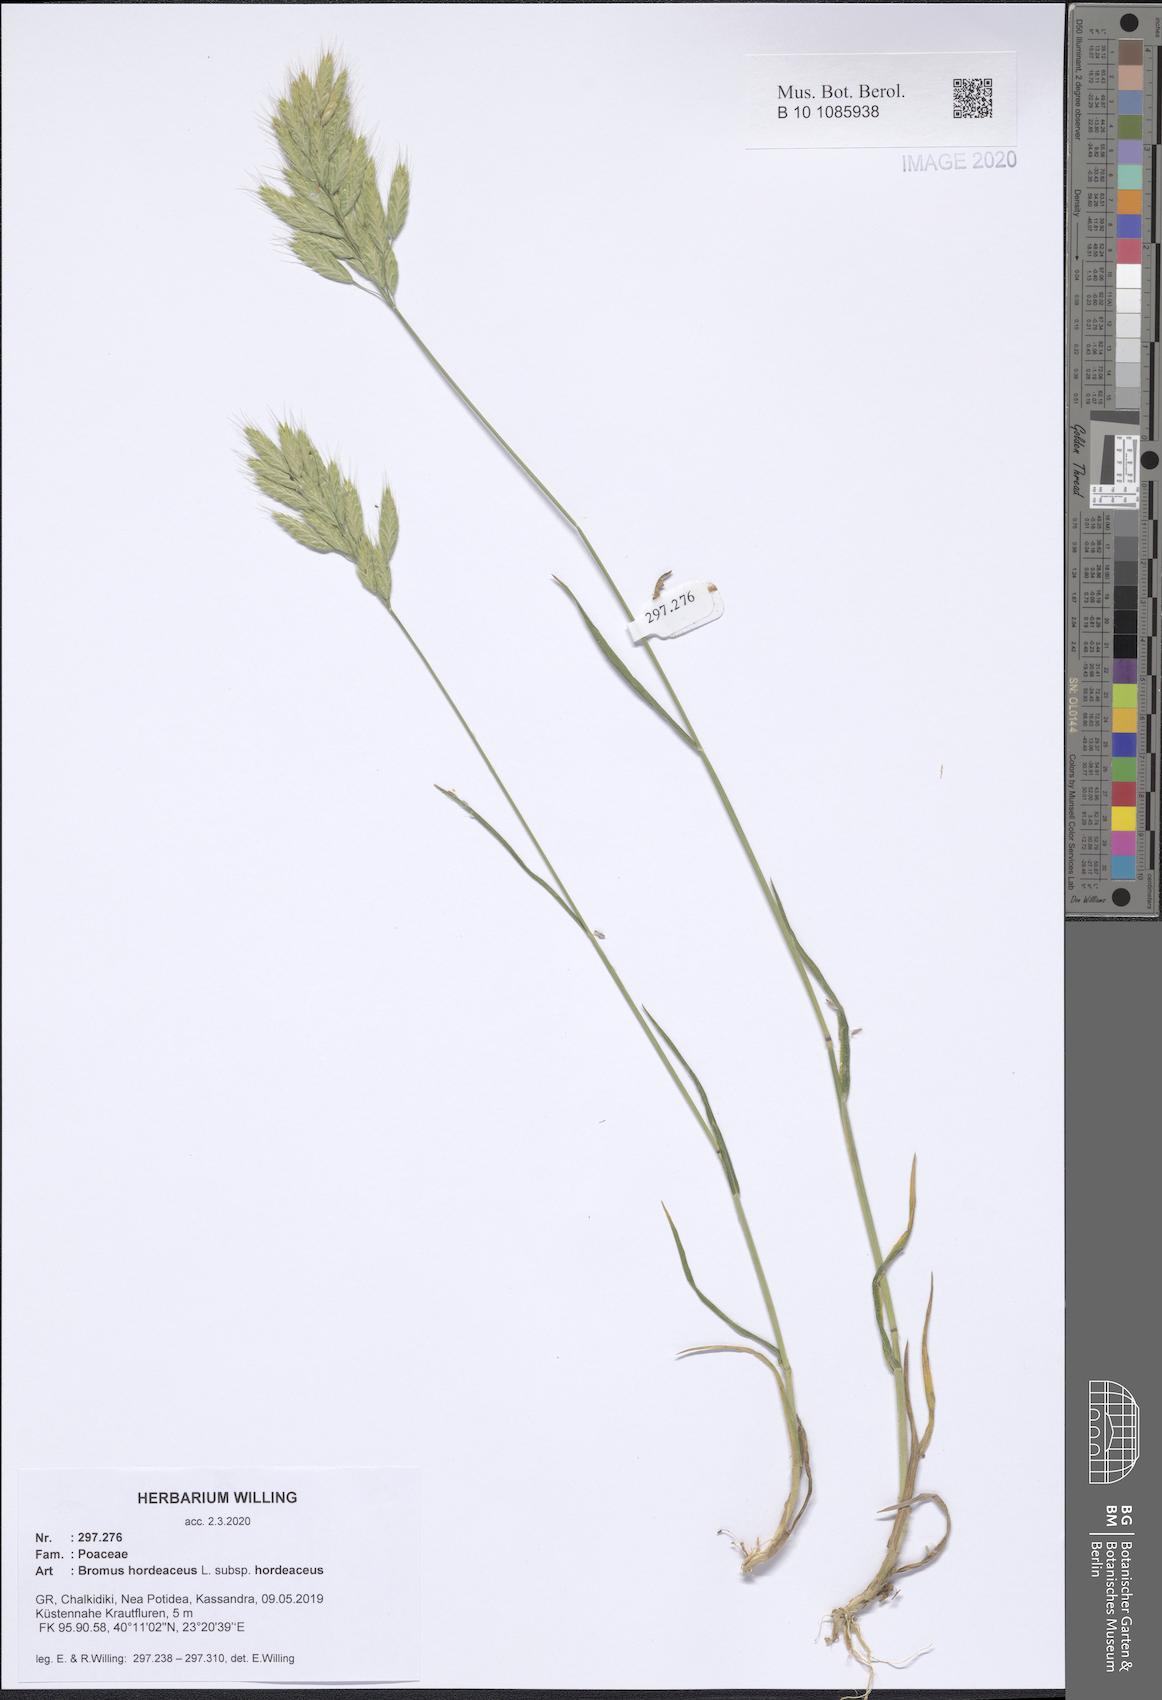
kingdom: Plantae
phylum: Tracheophyta
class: Liliopsida
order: Poales
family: Poaceae
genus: Bromus
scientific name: Bromus hordeaceus
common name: Soft brome
